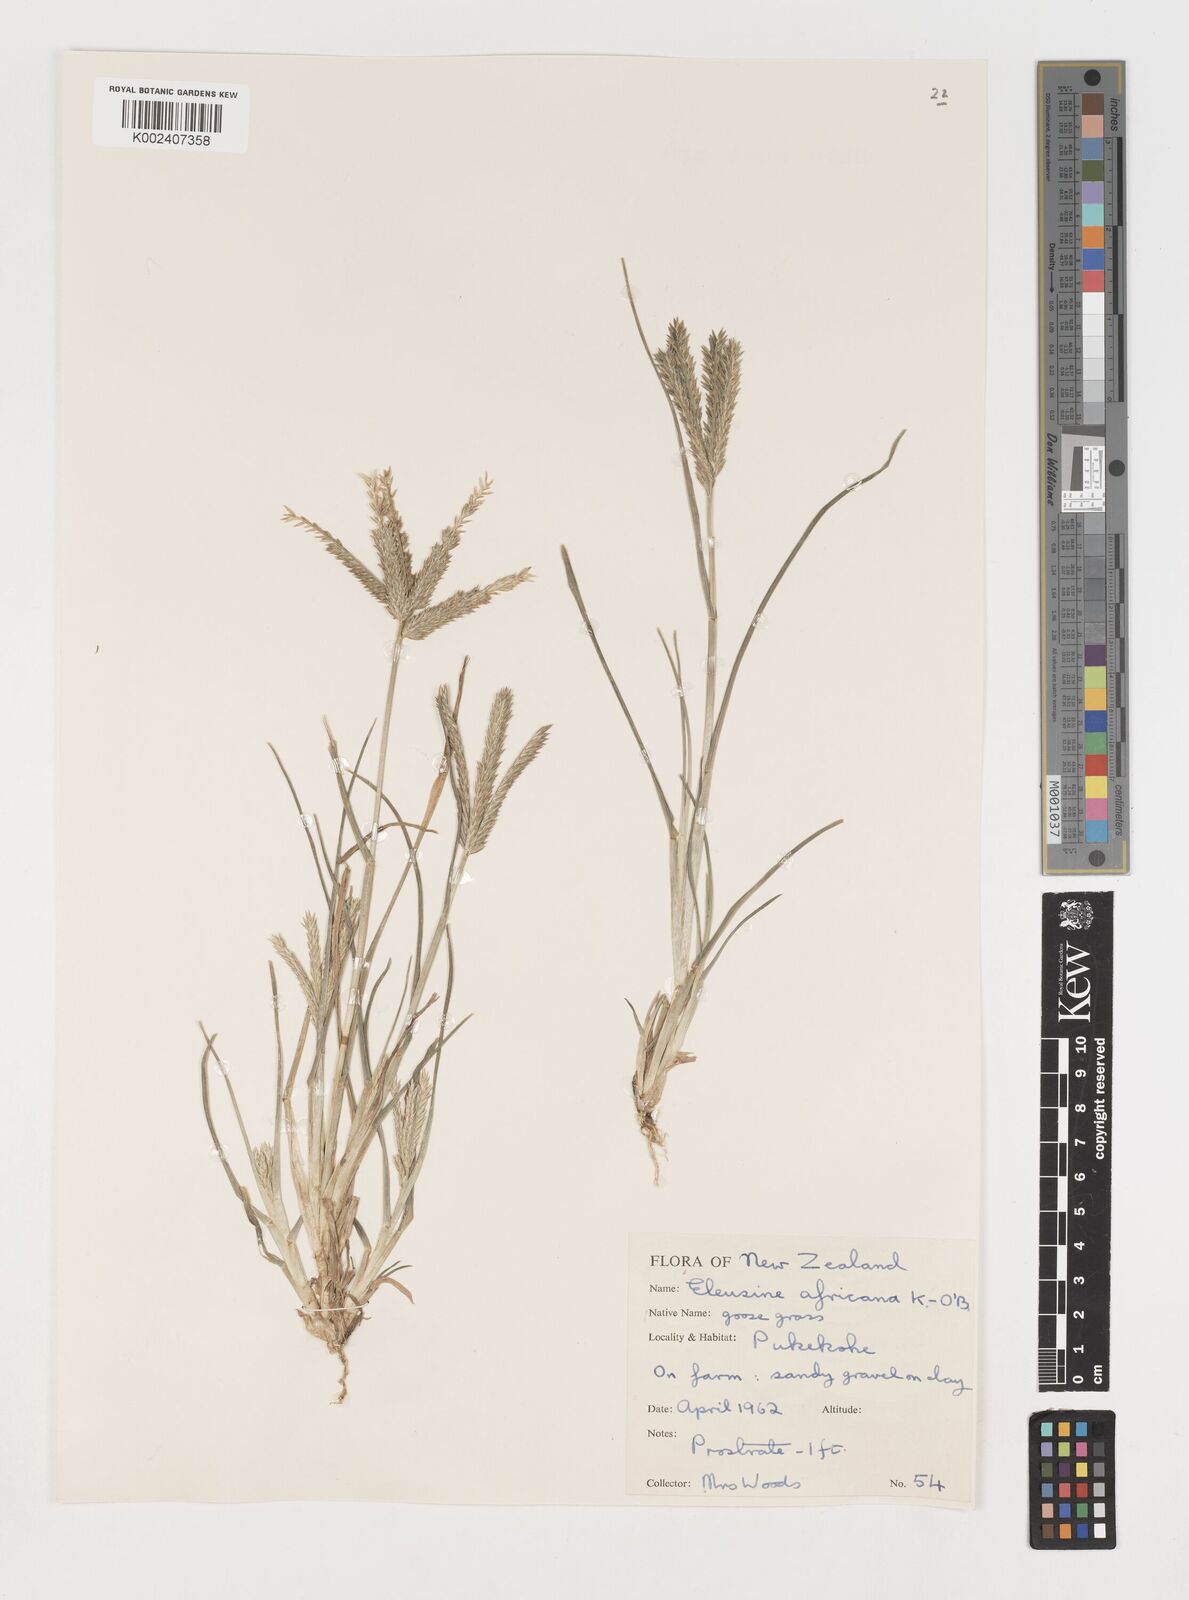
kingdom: Plantae
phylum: Tracheophyta
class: Liliopsida
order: Poales
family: Poaceae
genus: Eleusine
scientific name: Eleusine africana
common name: Wild african finger millet
